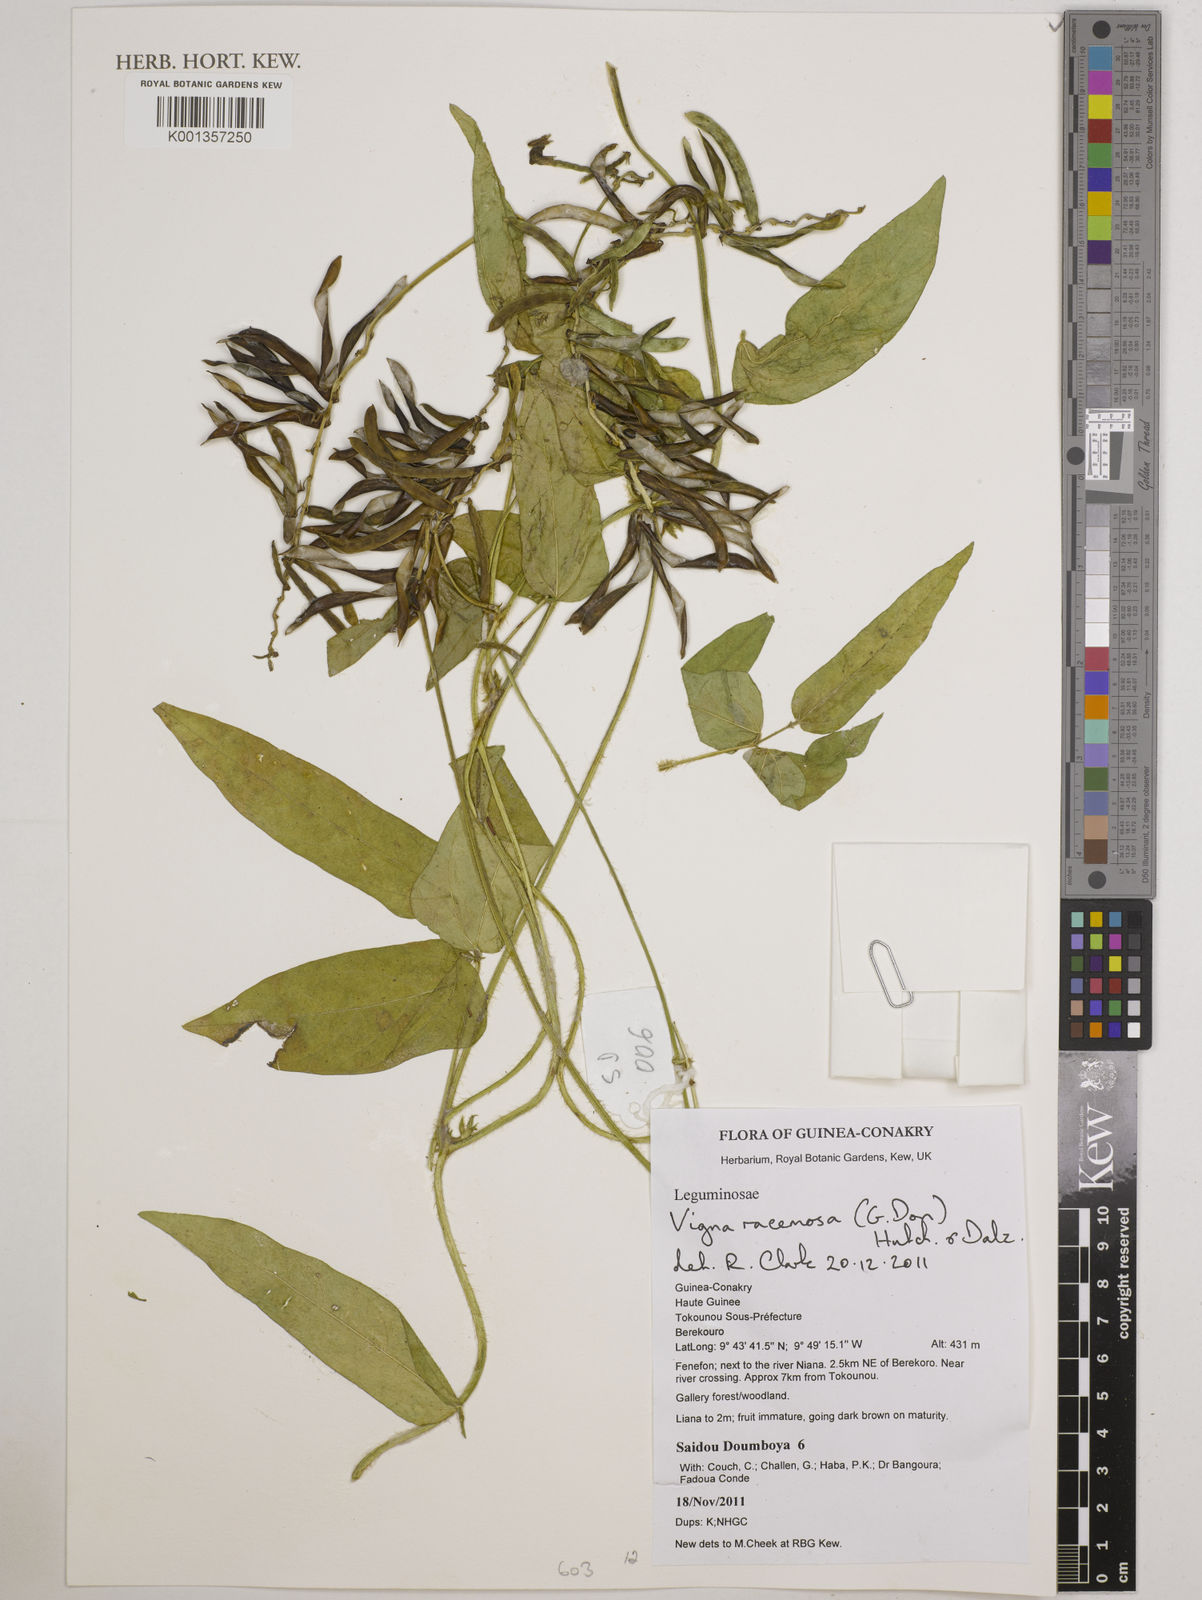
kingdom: Plantae
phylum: Tracheophyta
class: Magnoliopsida
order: Fabales
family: Fabaceae
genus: Vigna
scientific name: Vigna racemosa
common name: Beans not eaten
